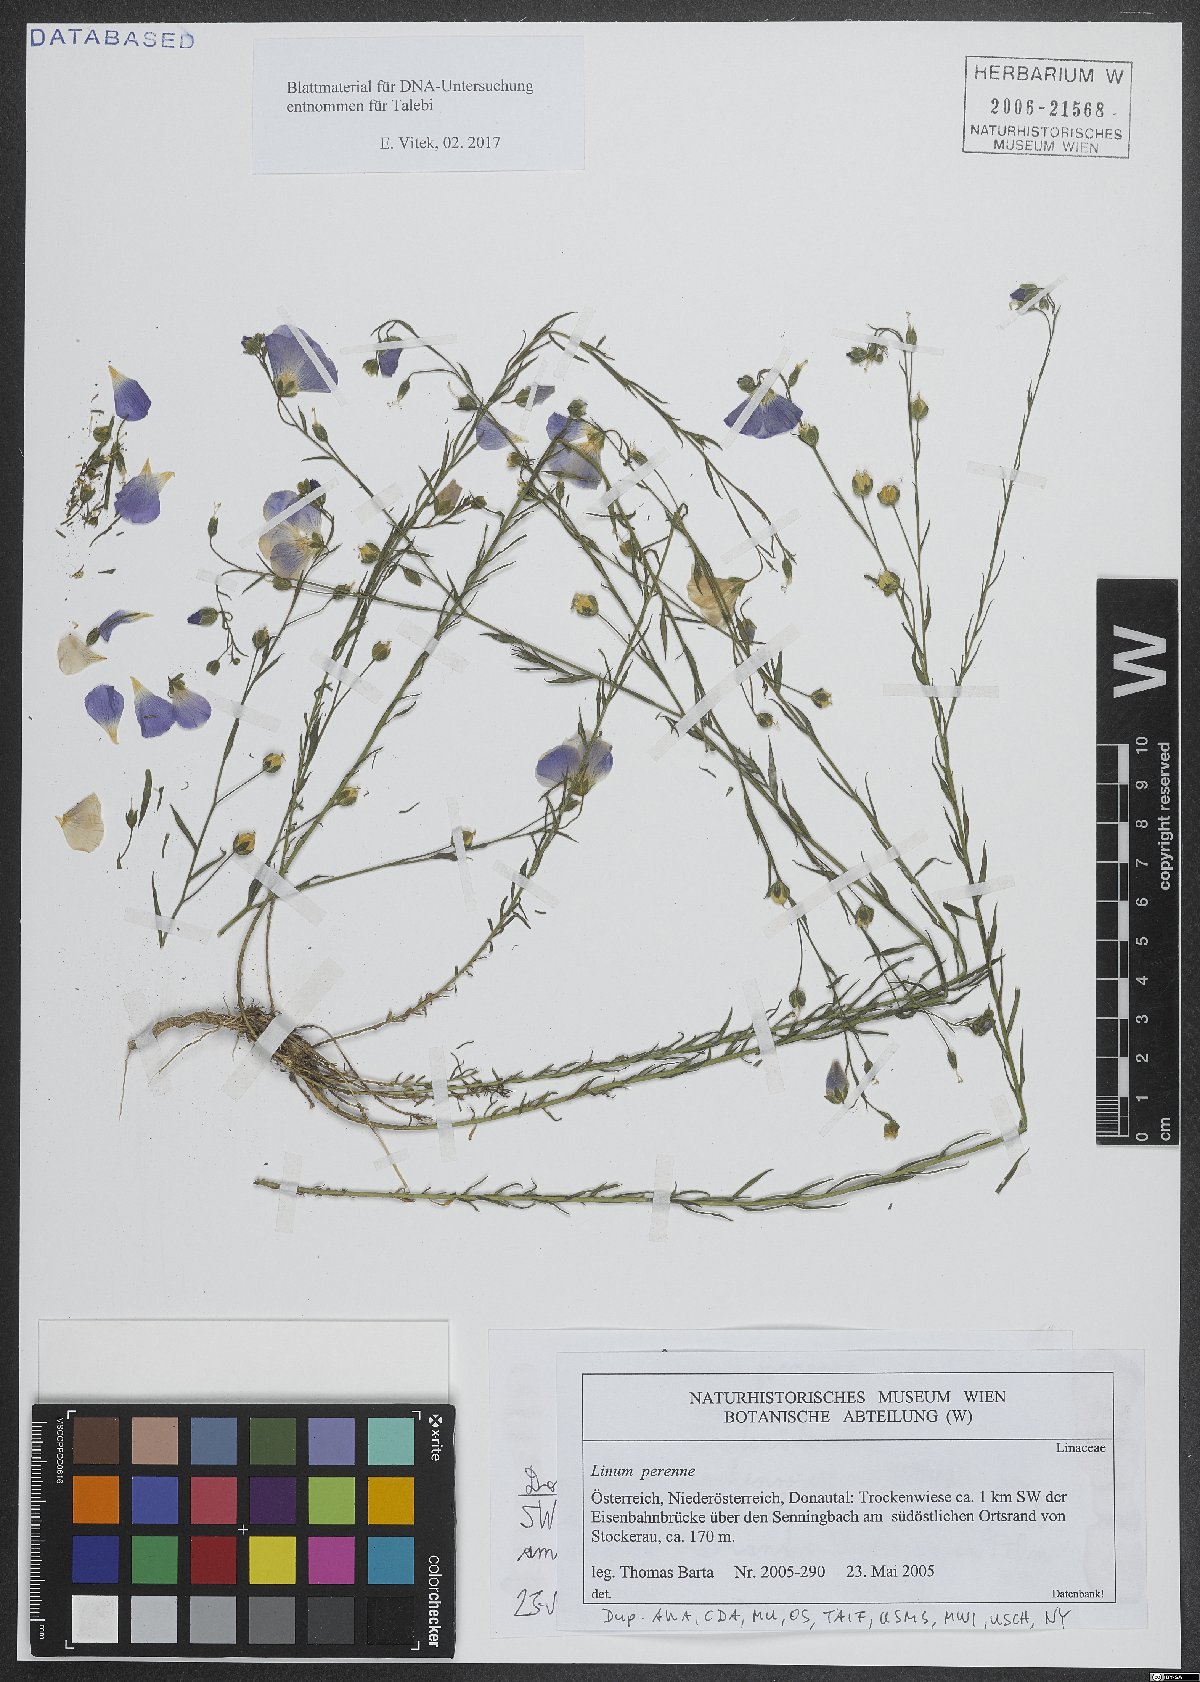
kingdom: Plantae
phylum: Tracheophyta
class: Magnoliopsida
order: Malpighiales
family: Linaceae
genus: Linum
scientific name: Linum perenne
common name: Blue flax
